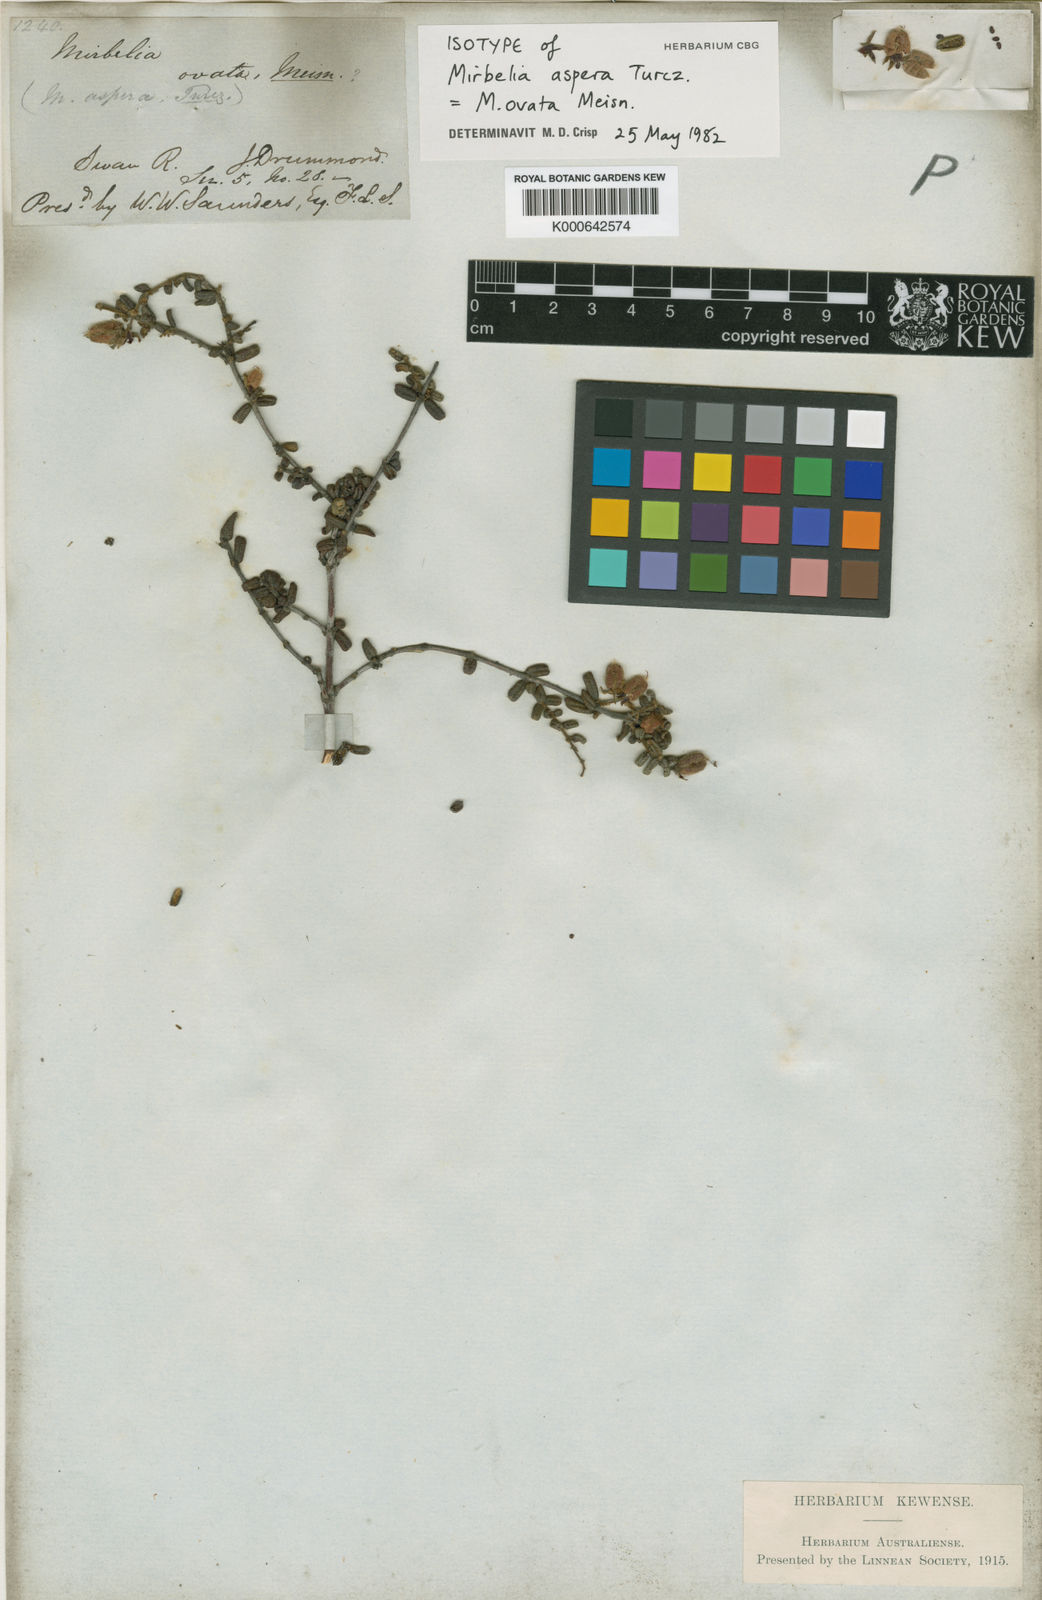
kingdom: Plantae
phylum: Tracheophyta
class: Magnoliopsida
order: Fabales
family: Fabaceae
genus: Mirbelia
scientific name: Mirbelia ovata
